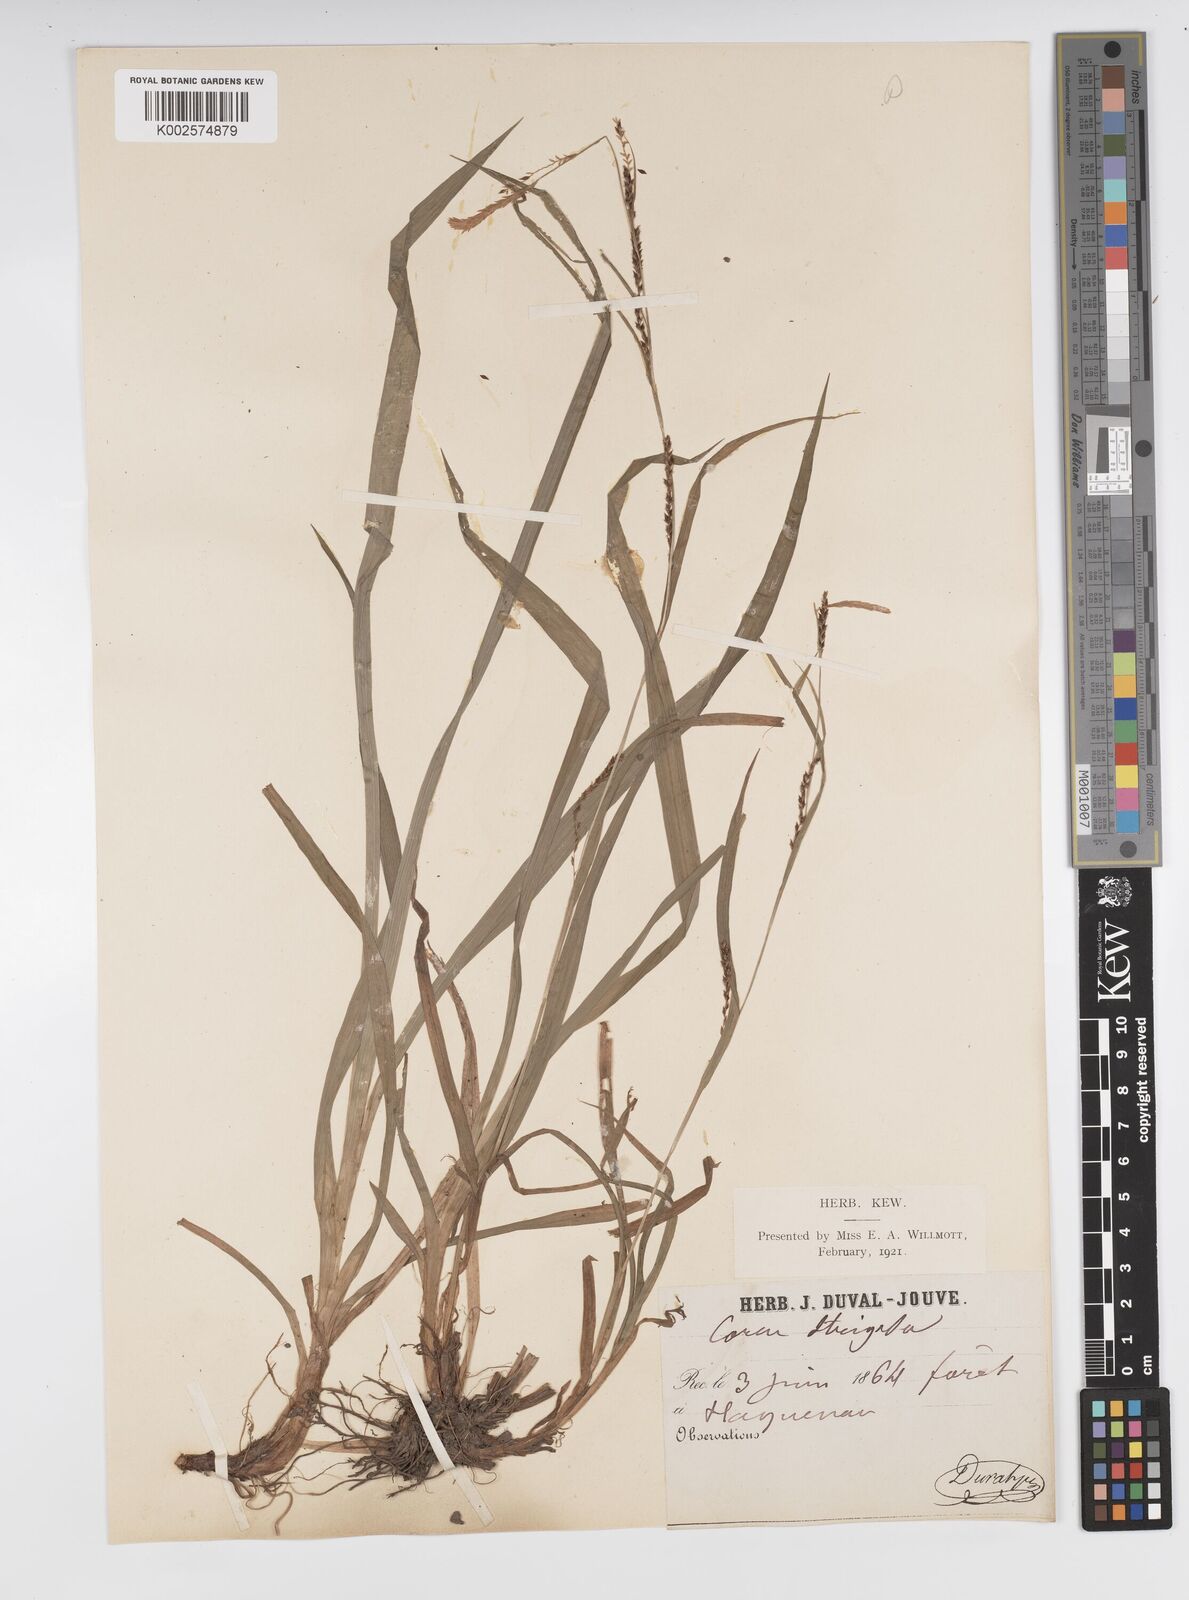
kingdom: Plantae
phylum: Tracheophyta
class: Liliopsida
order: Poales
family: Cyperaceae
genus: Carex
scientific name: Carex strigosa
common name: Thin-spiked wood-sedge
